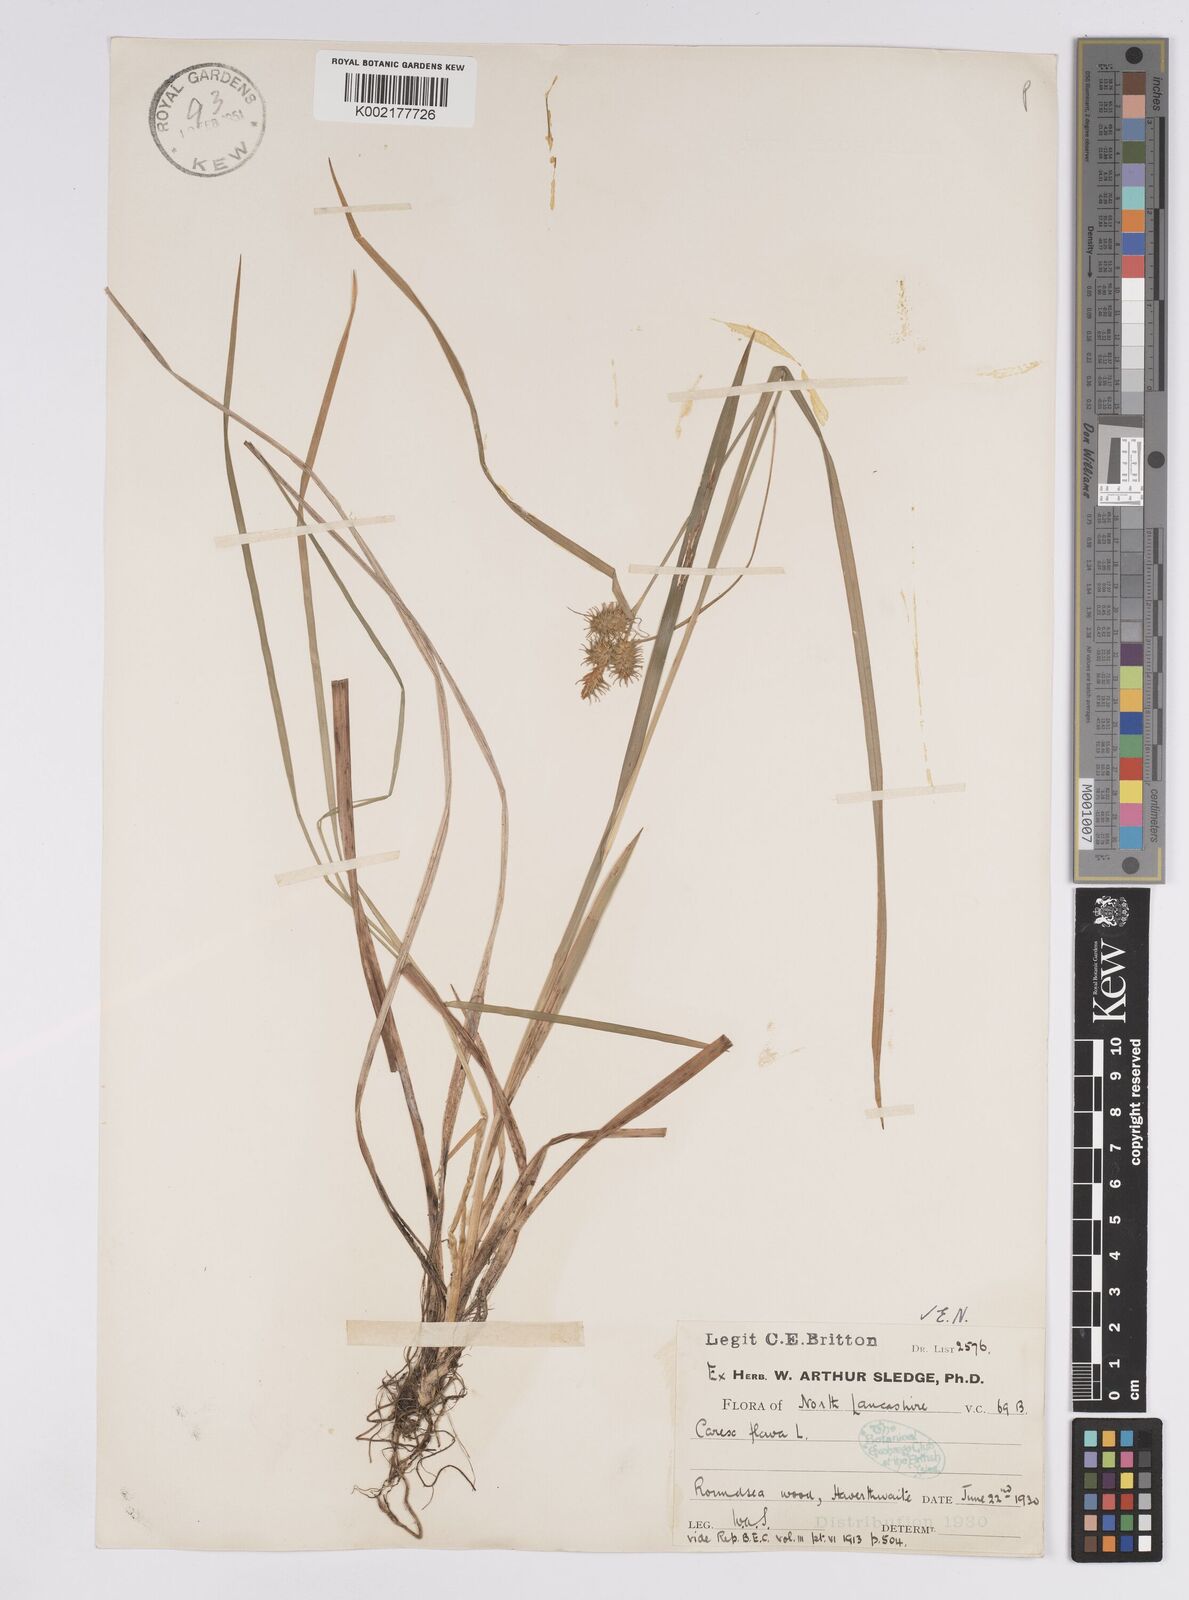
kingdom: Plantae
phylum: Tracheophyta
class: Liliopsida
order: Poales
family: Cyperaceae
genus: Carex
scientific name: Carex flava
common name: Large yellow-sedge
